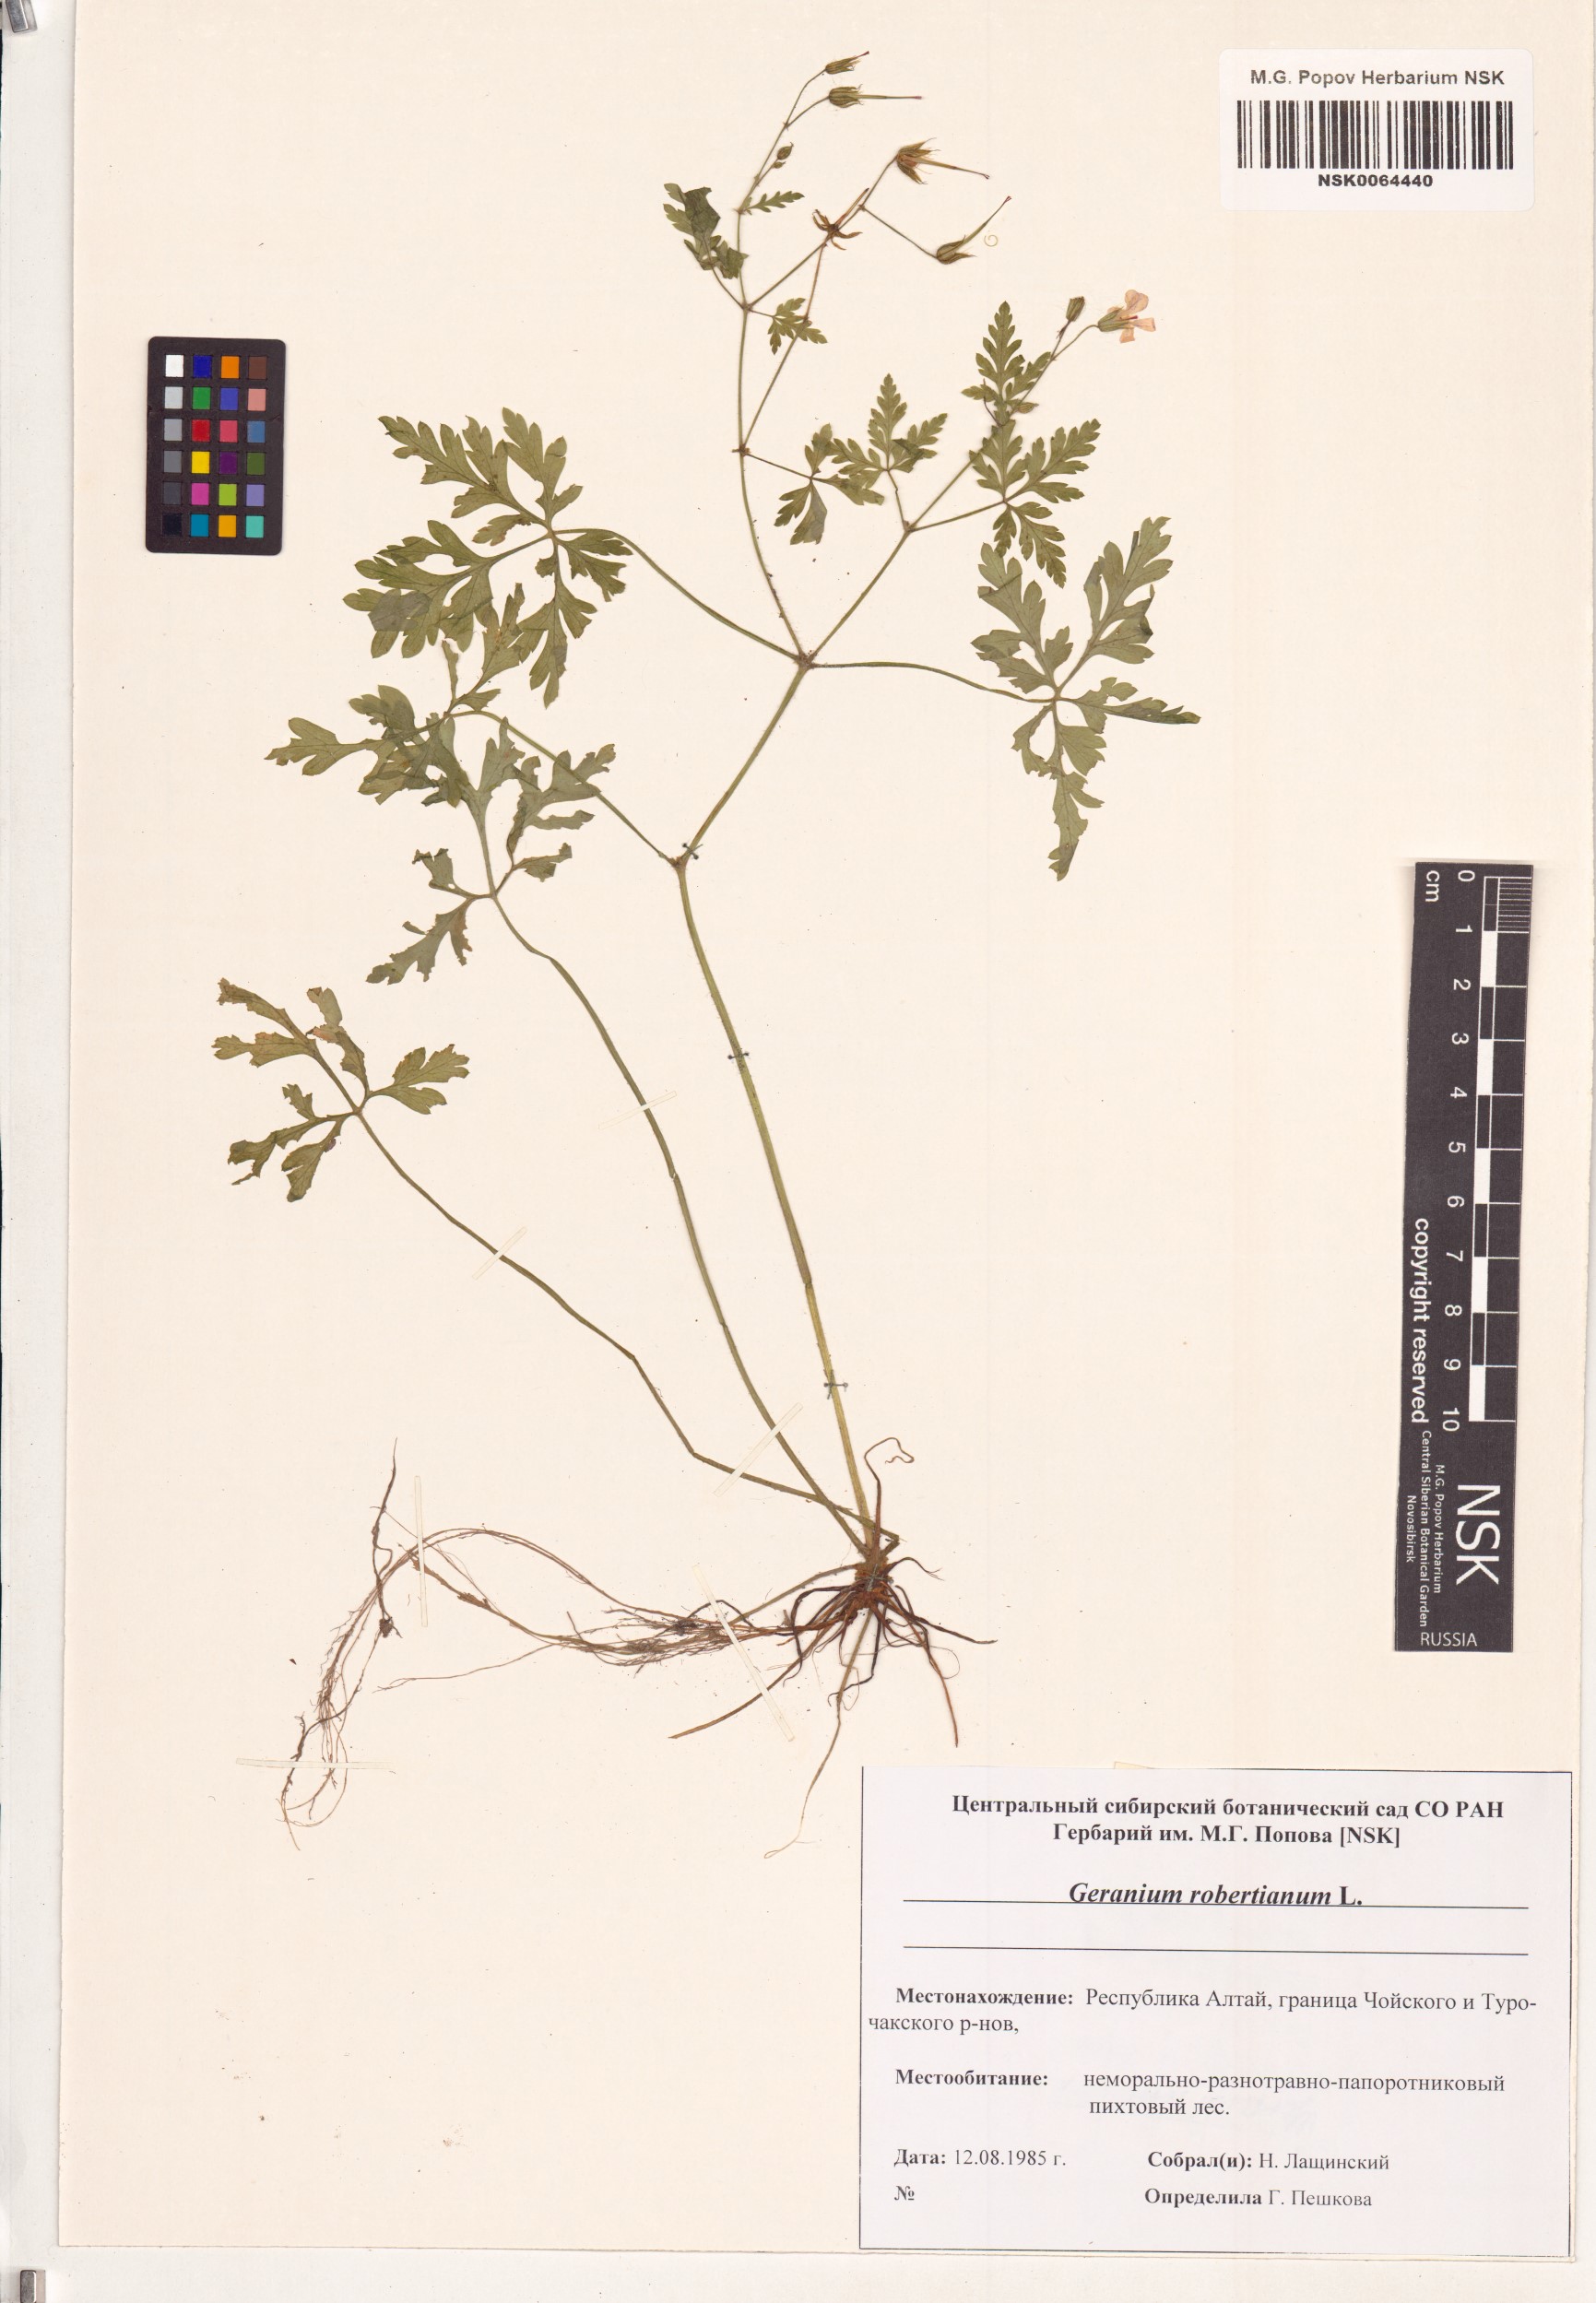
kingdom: Plantae
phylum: Tracheophyta
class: Magnoliopsida
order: Geraniales
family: Geraniaceae
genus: Geranium
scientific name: Geranium robertianum
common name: Herb-robert
